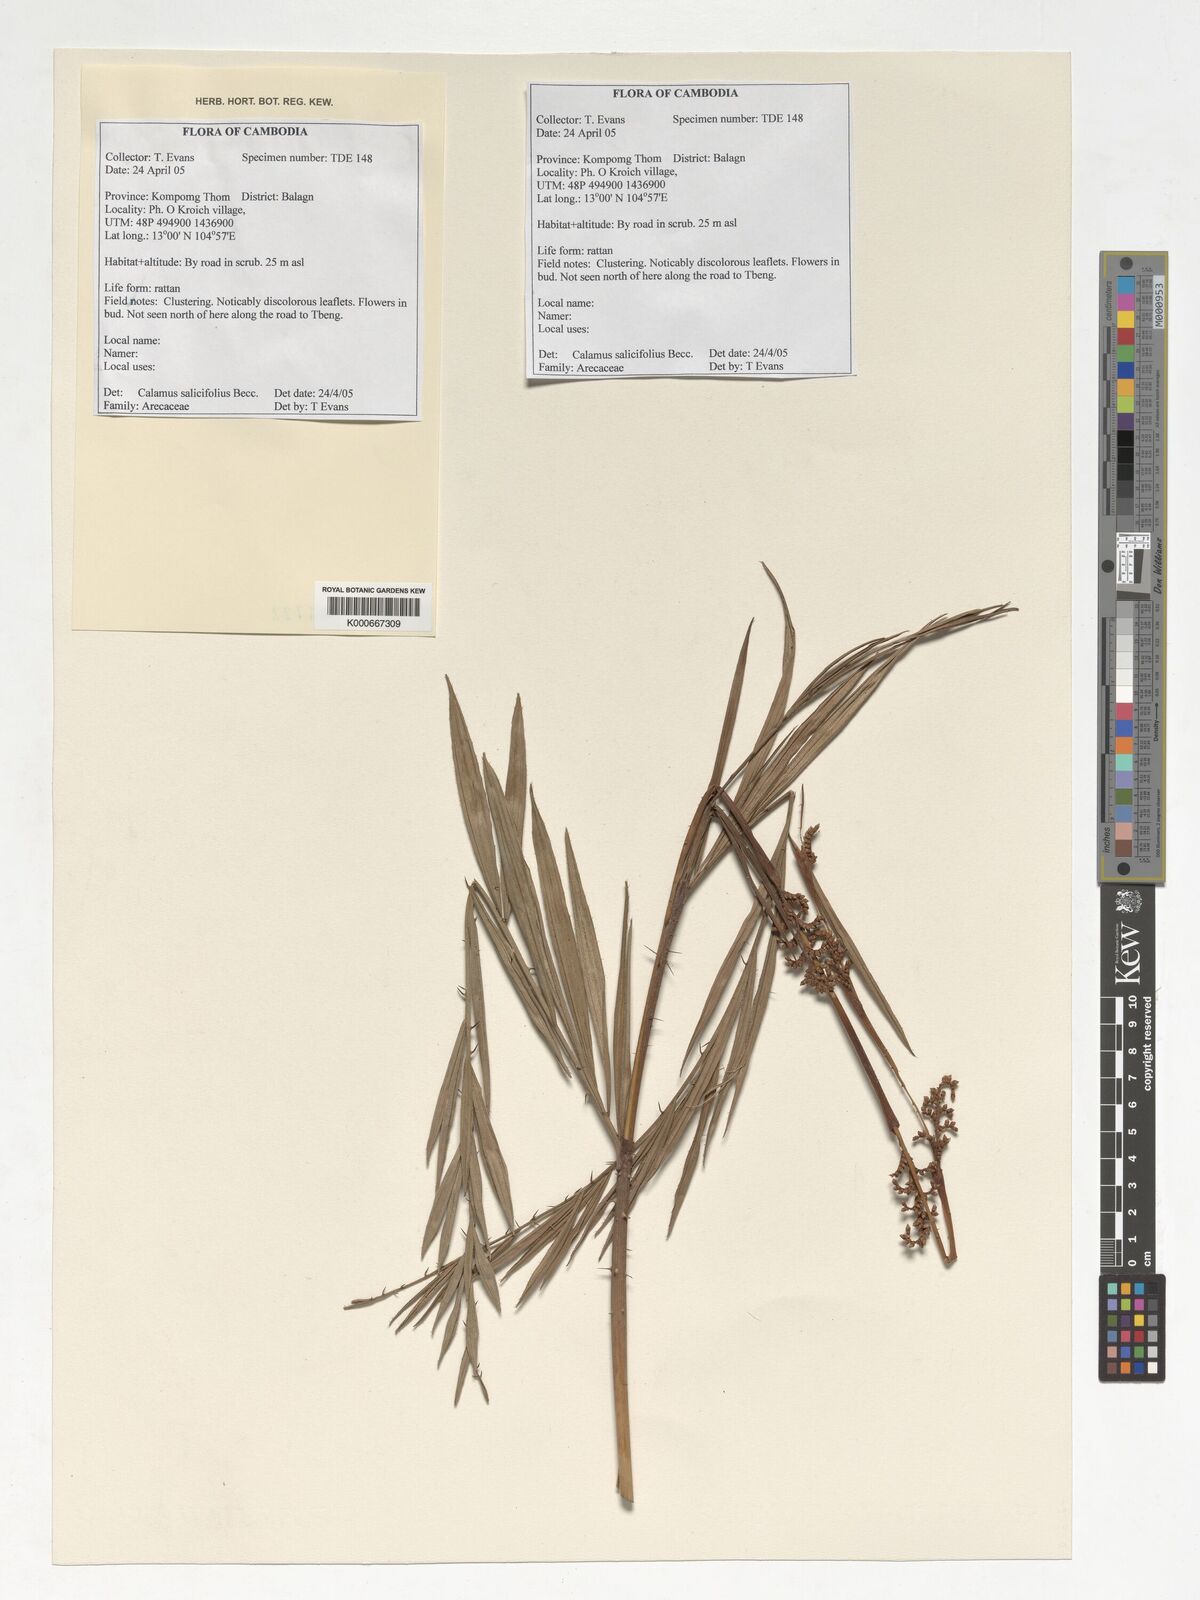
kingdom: Plantae
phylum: Tracheophyta
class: Liliopsida
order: Arecales
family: Arecaceae
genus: Calamus
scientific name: Calamus salicifolius
